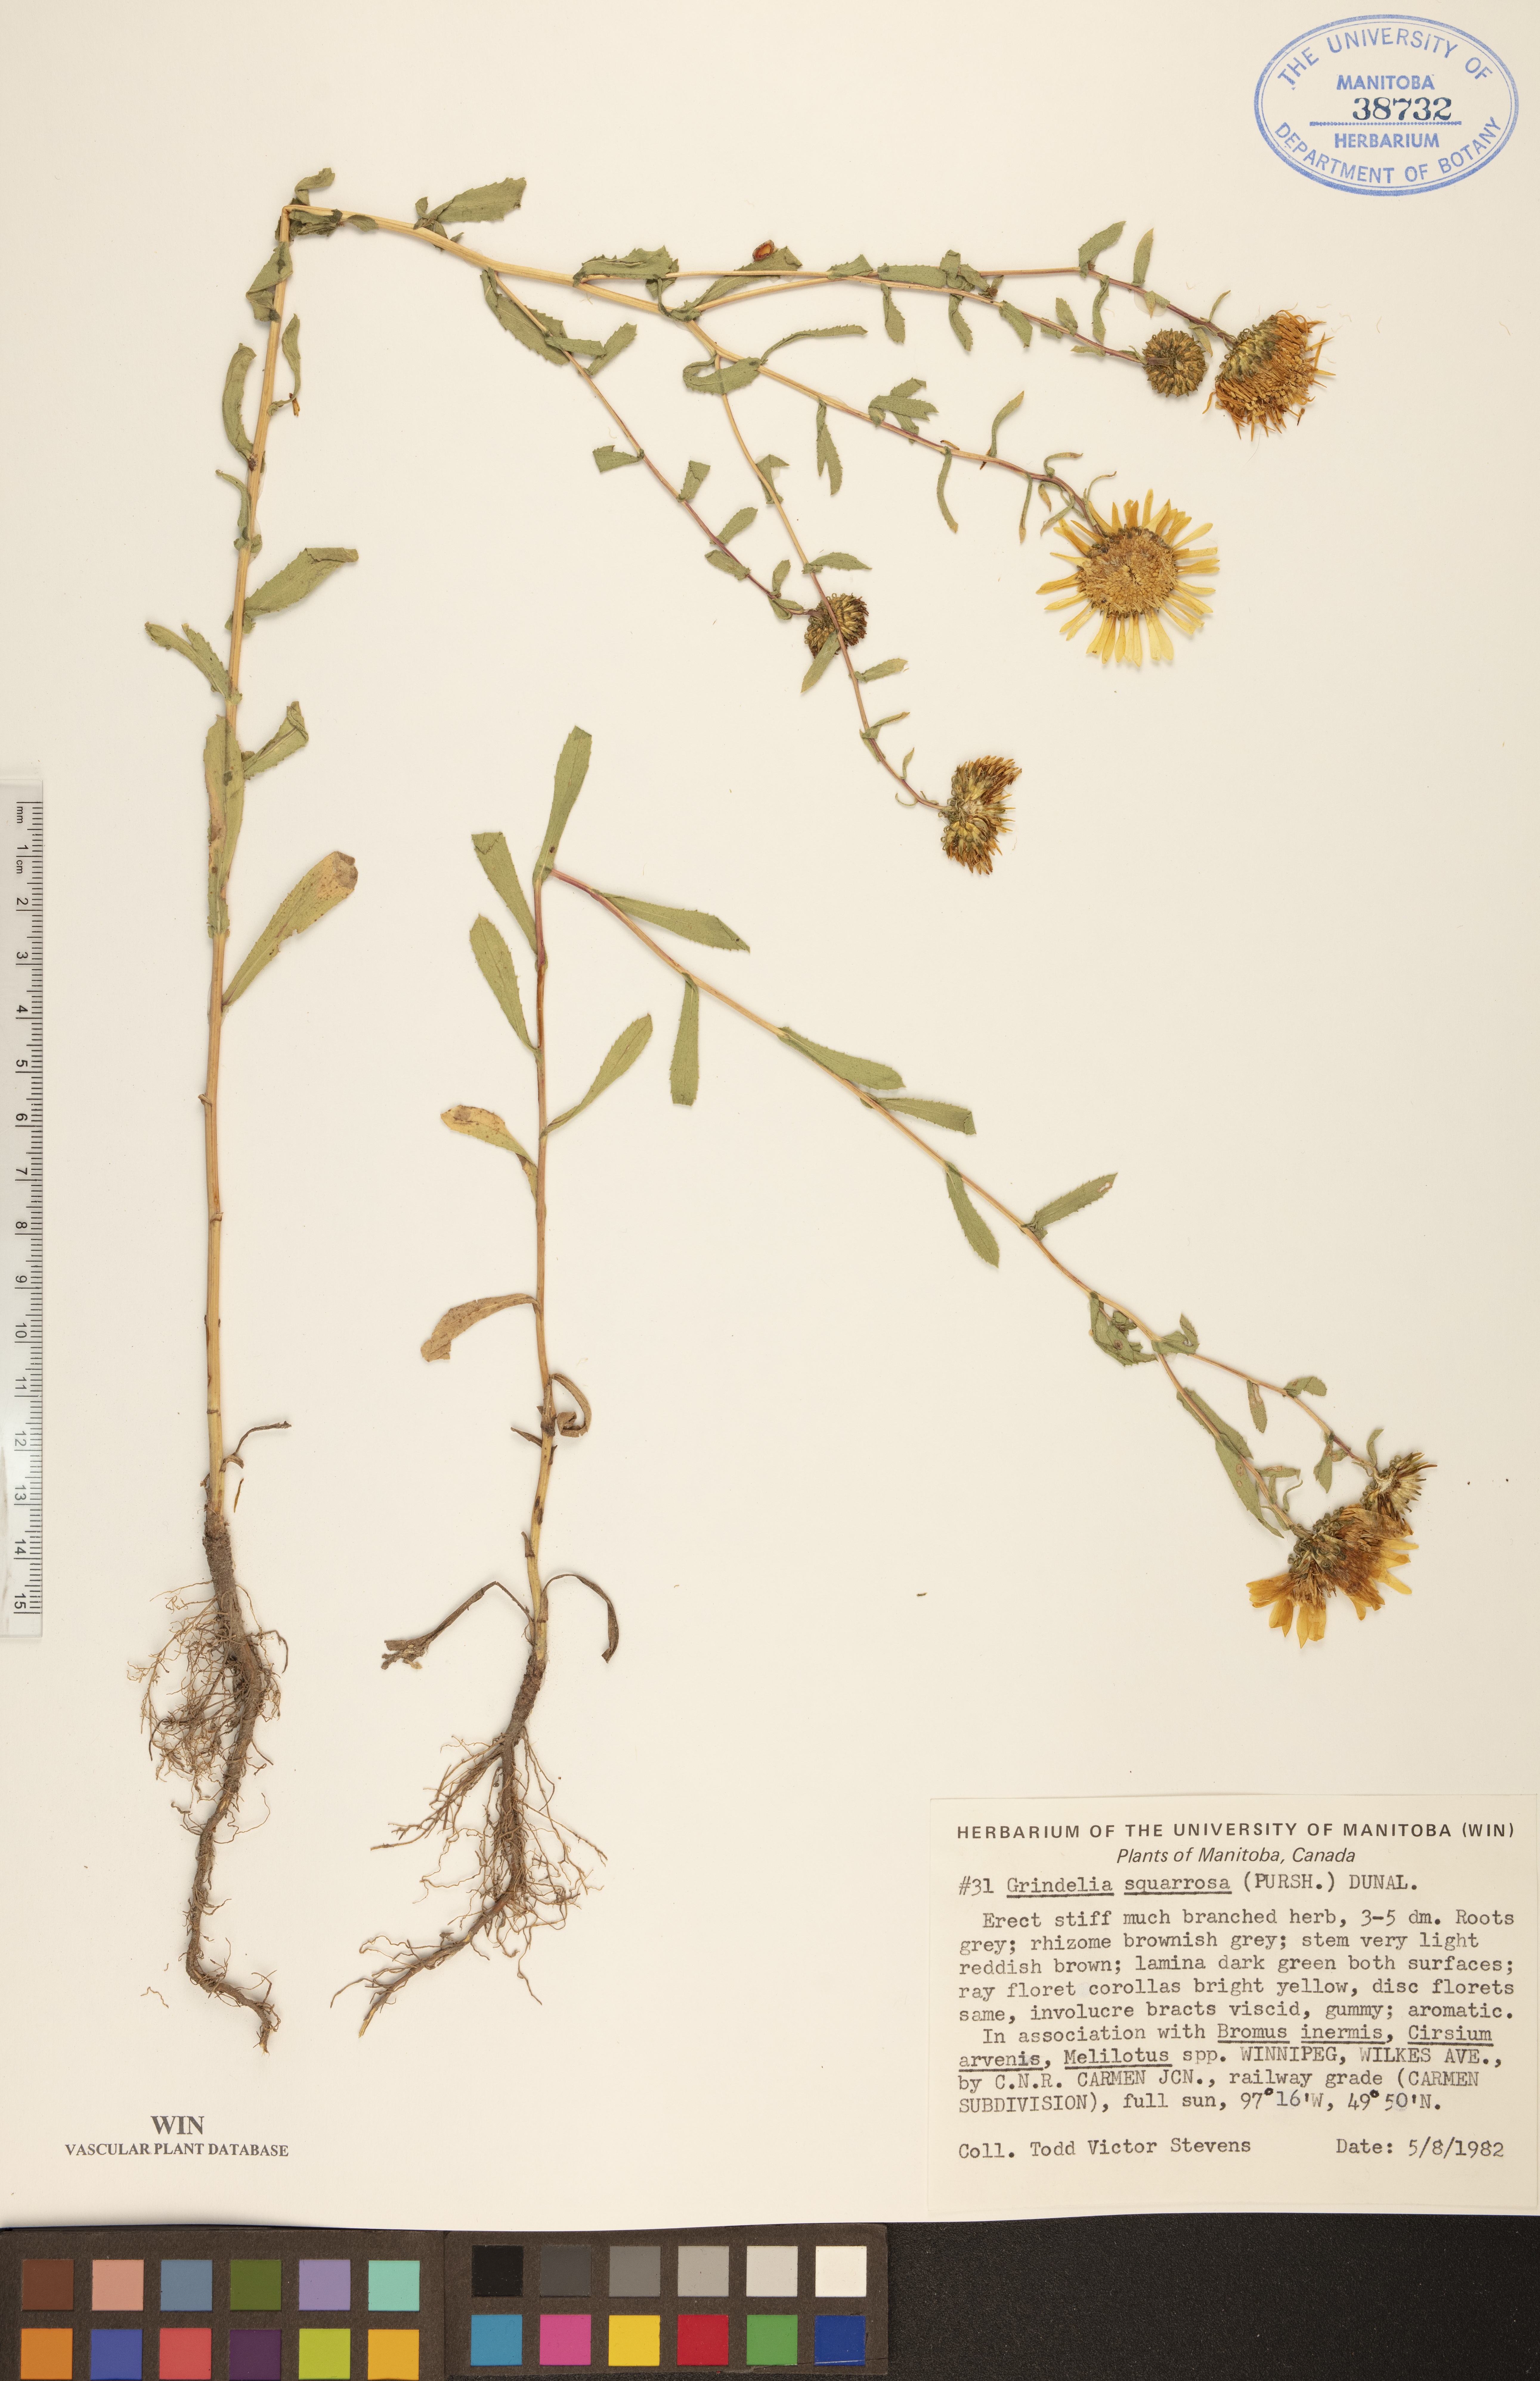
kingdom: Plantae
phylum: Tracheophyta
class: Magnoliopsida
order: Asterales
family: Asteraceae
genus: Grindelia
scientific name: Grindelia squarrosa
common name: Curly-cup gumweed
